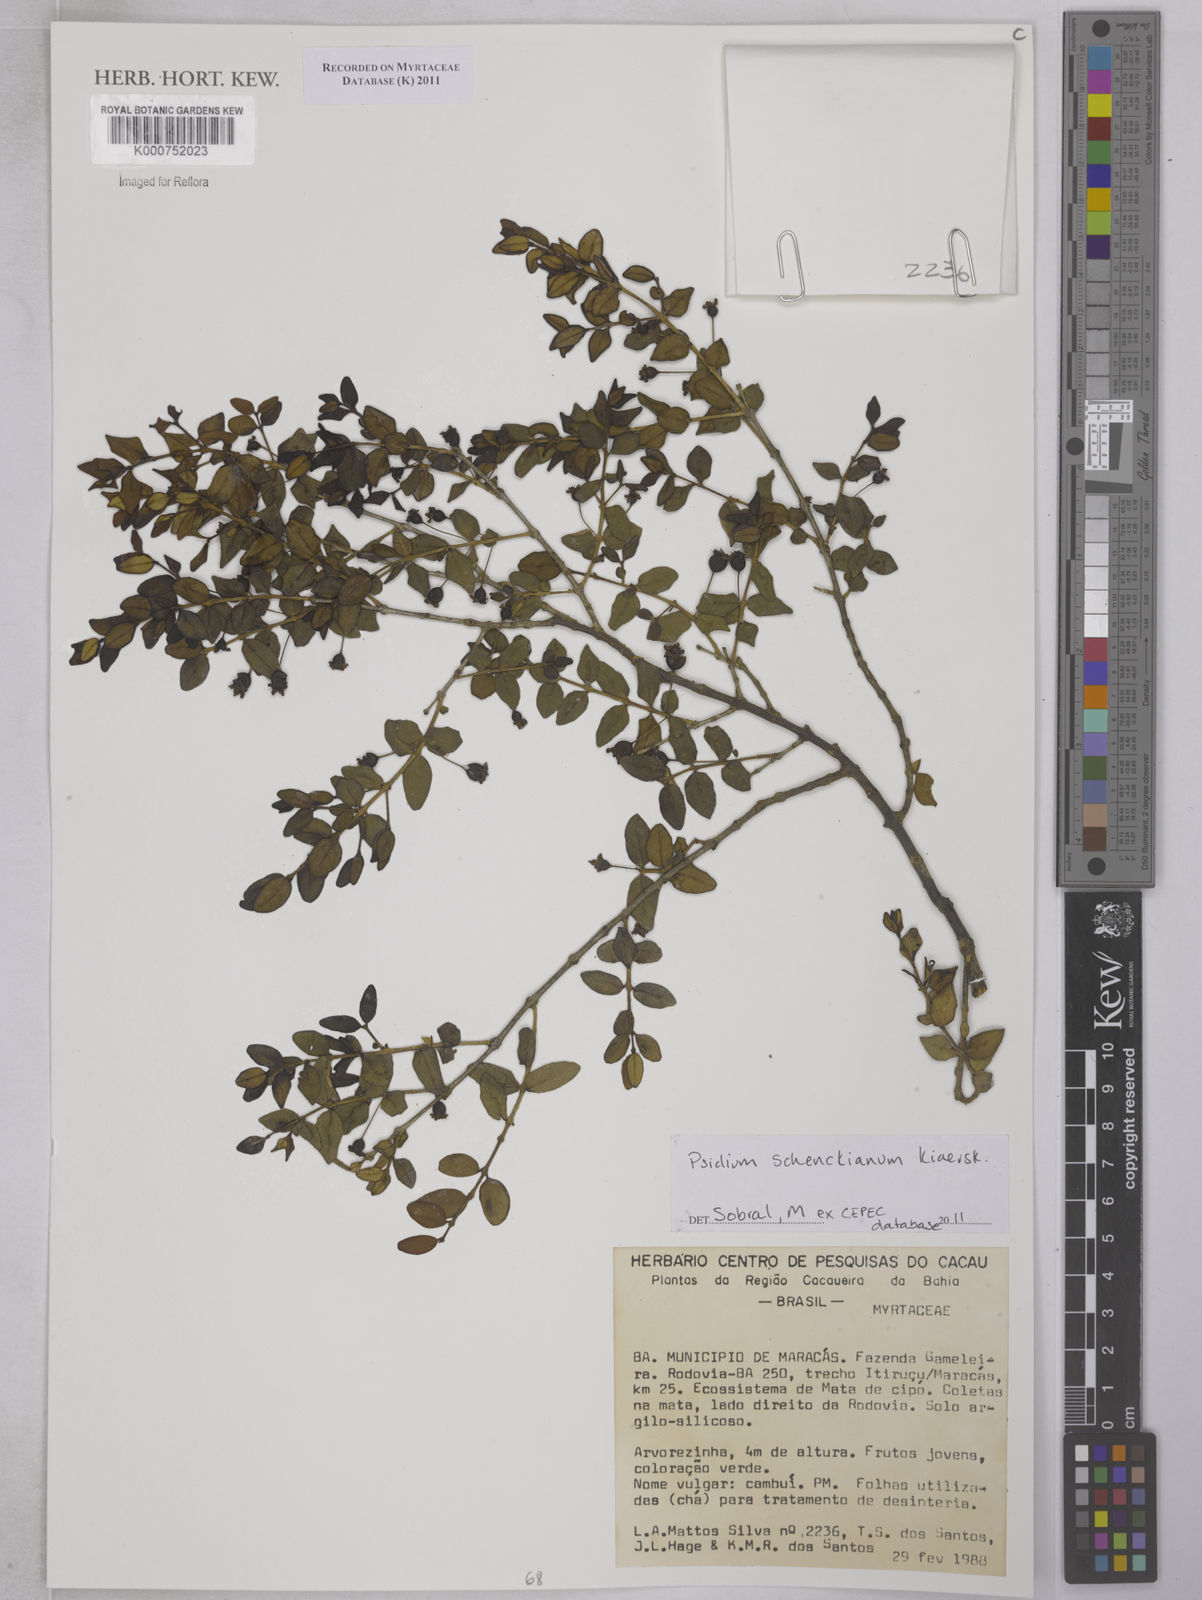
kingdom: Plantae
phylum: Tracheophyta
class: Magnoliopsida
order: Myrtales
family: Myrtaceae
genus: Psidium
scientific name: Psidium schenckianum
